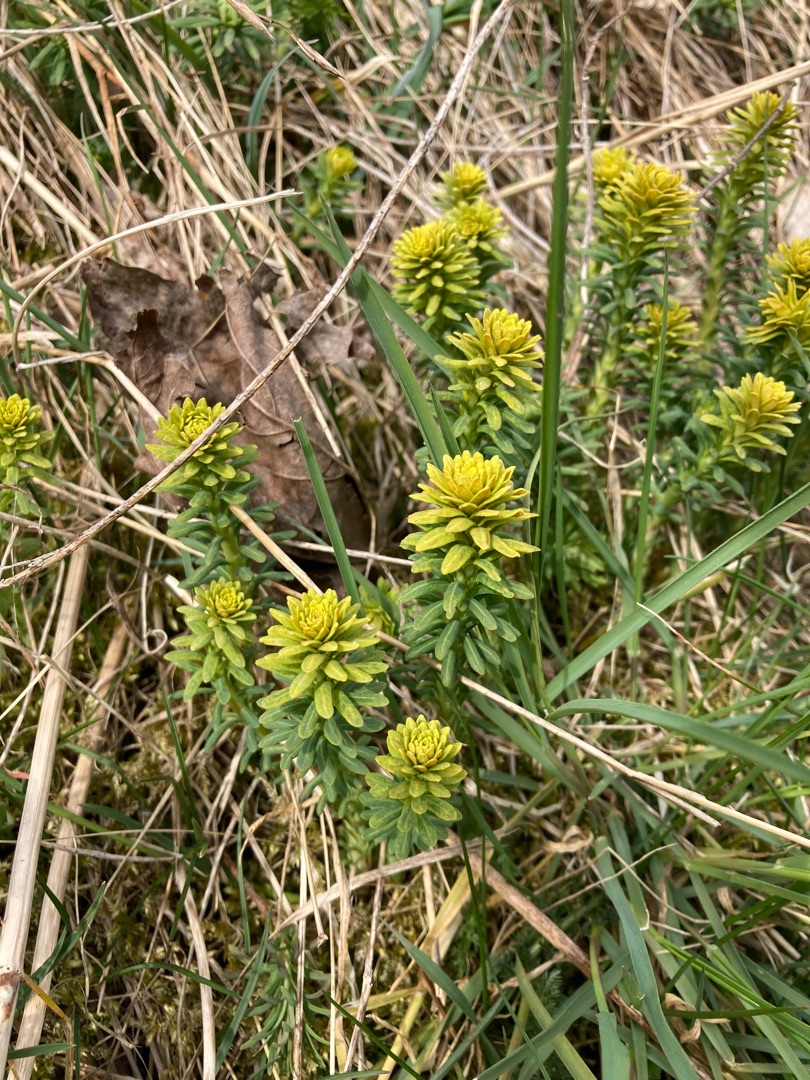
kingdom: Plantae
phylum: Tracheophyta
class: Magnoliopsida
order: Malpighiales
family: Euphorbiaceae
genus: Euphorbia
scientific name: Euphorbia
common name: Vortemælkslægten
